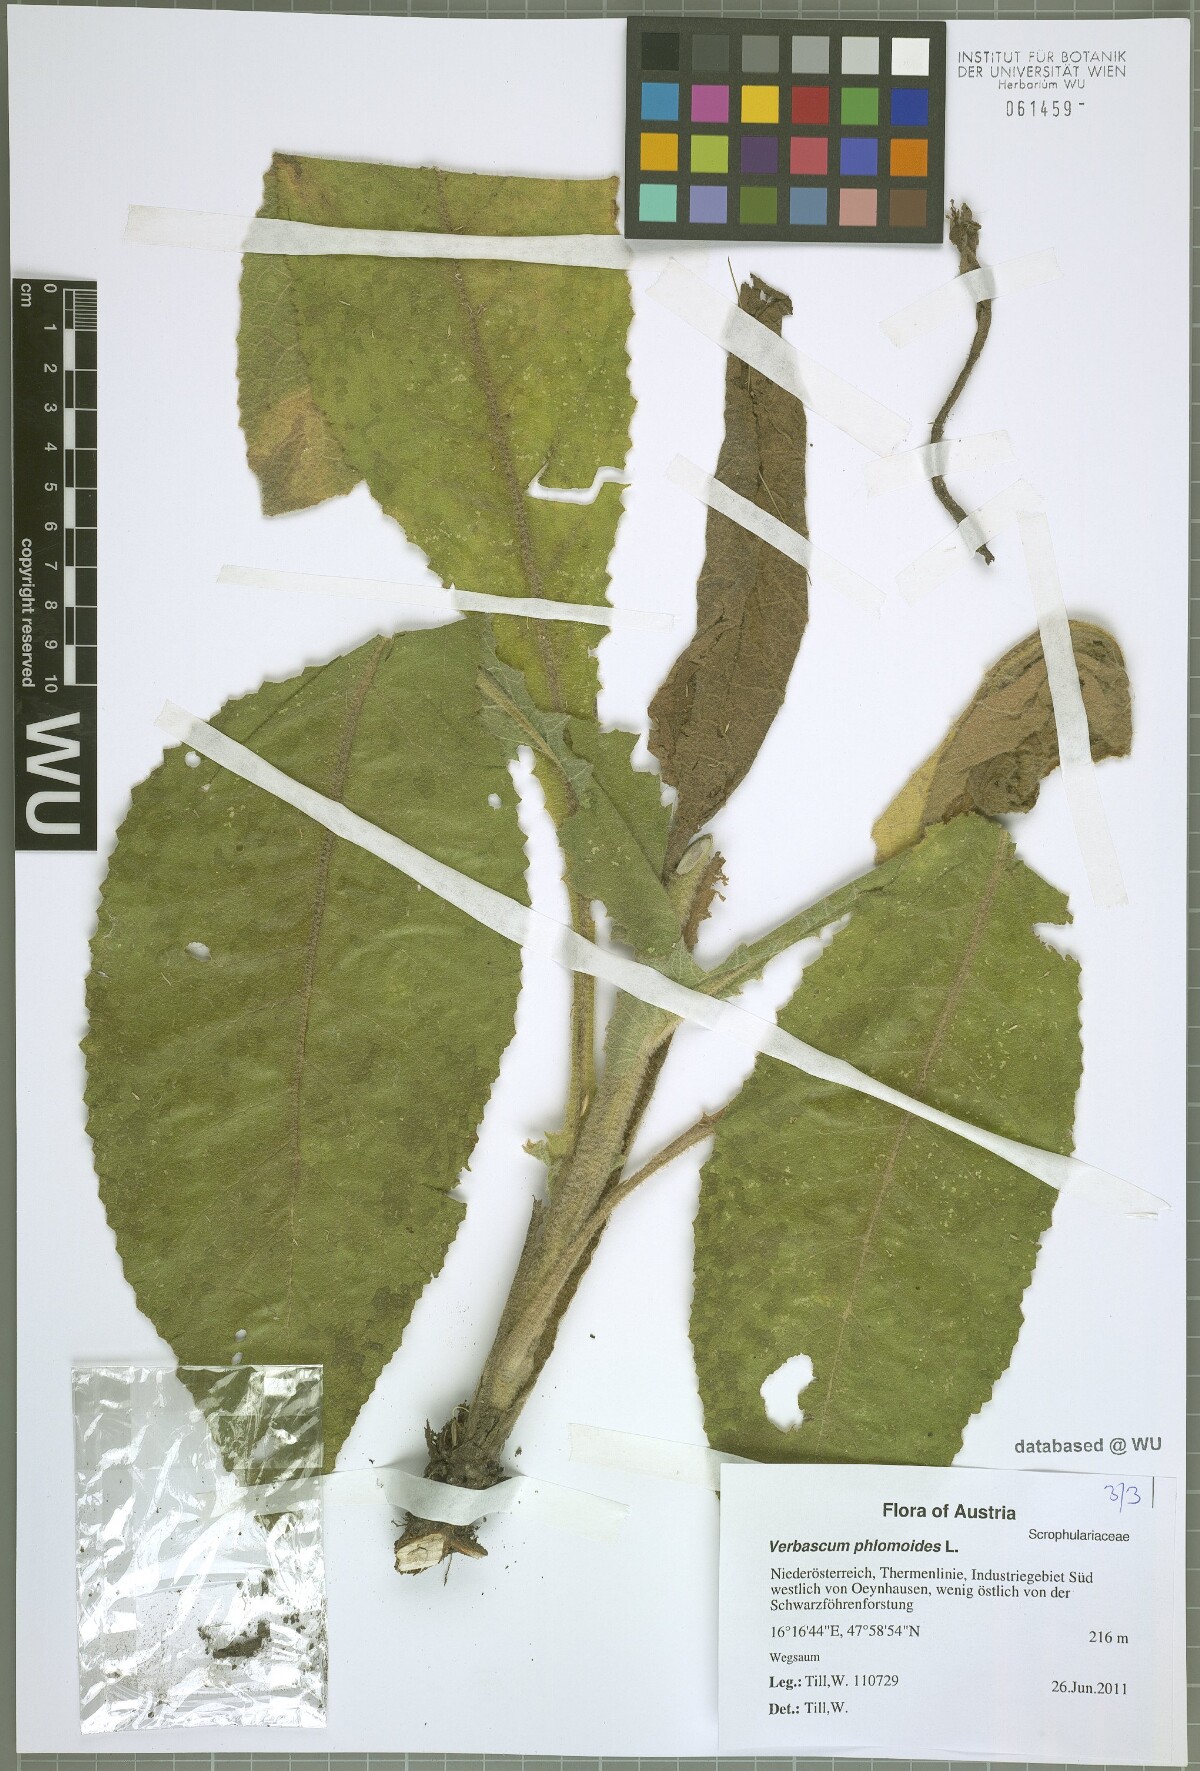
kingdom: Plantae
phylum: Tracheophyta
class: Magnoliopsida
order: Lamiales
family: Scrophulariaceae
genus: Verbascum
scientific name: Verbascum phlomoides
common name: Orange mullein
